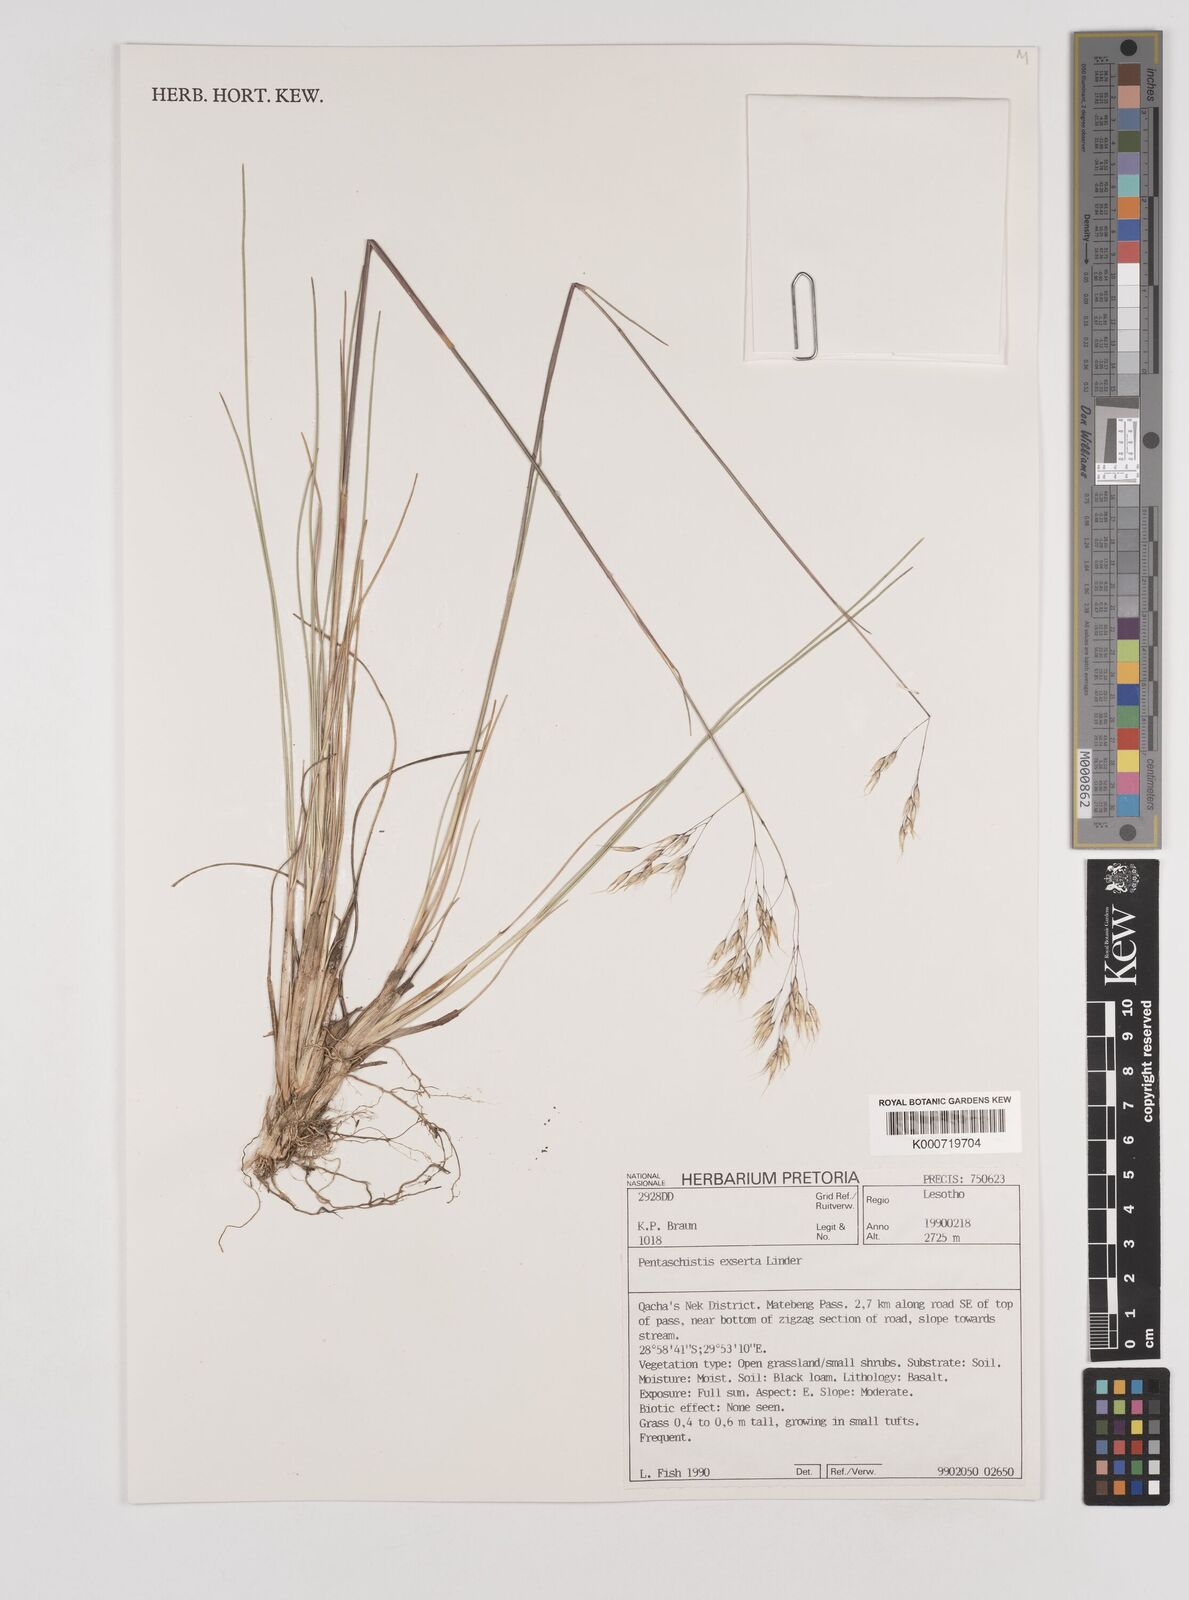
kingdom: Plantae
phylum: Tracheophyta
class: Liliopsida
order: Poales
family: Poaceae
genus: Pentameris
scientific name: Pentameris exserta
